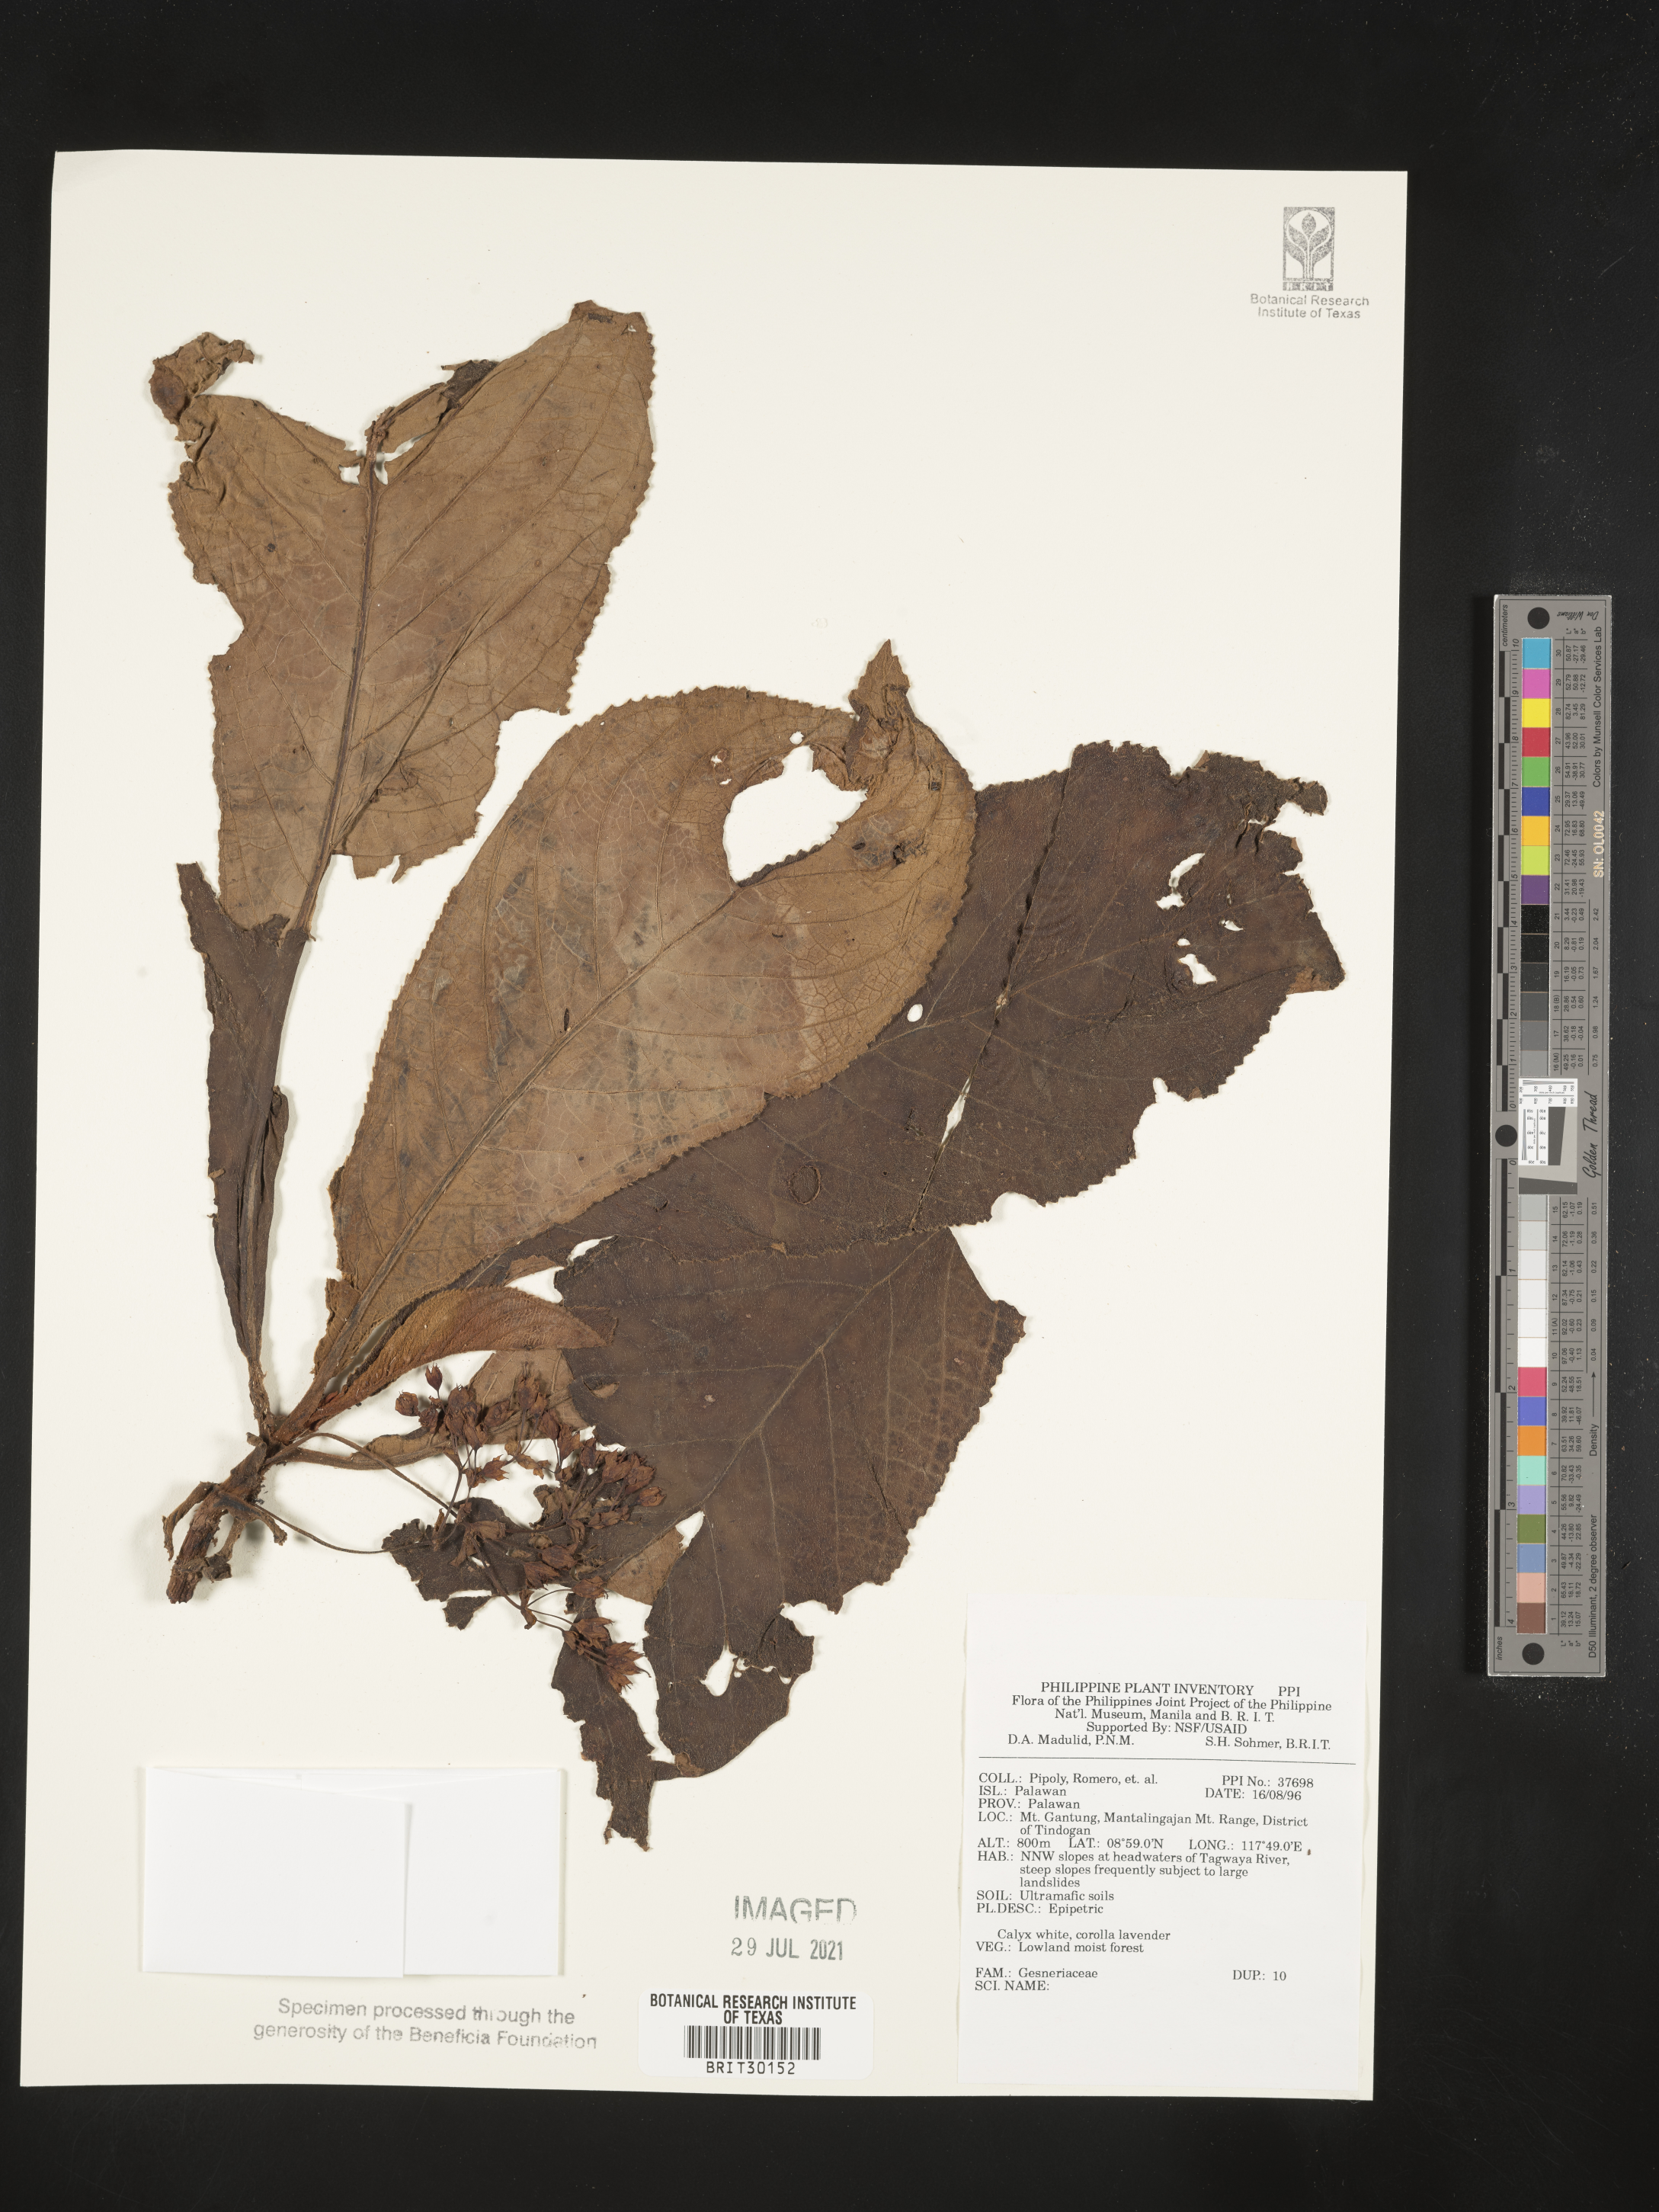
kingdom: Plantae
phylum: Tracheophyta
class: Magnoliopsida
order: Lamiales
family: Gesneriaceae
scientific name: Gesneriaceae
